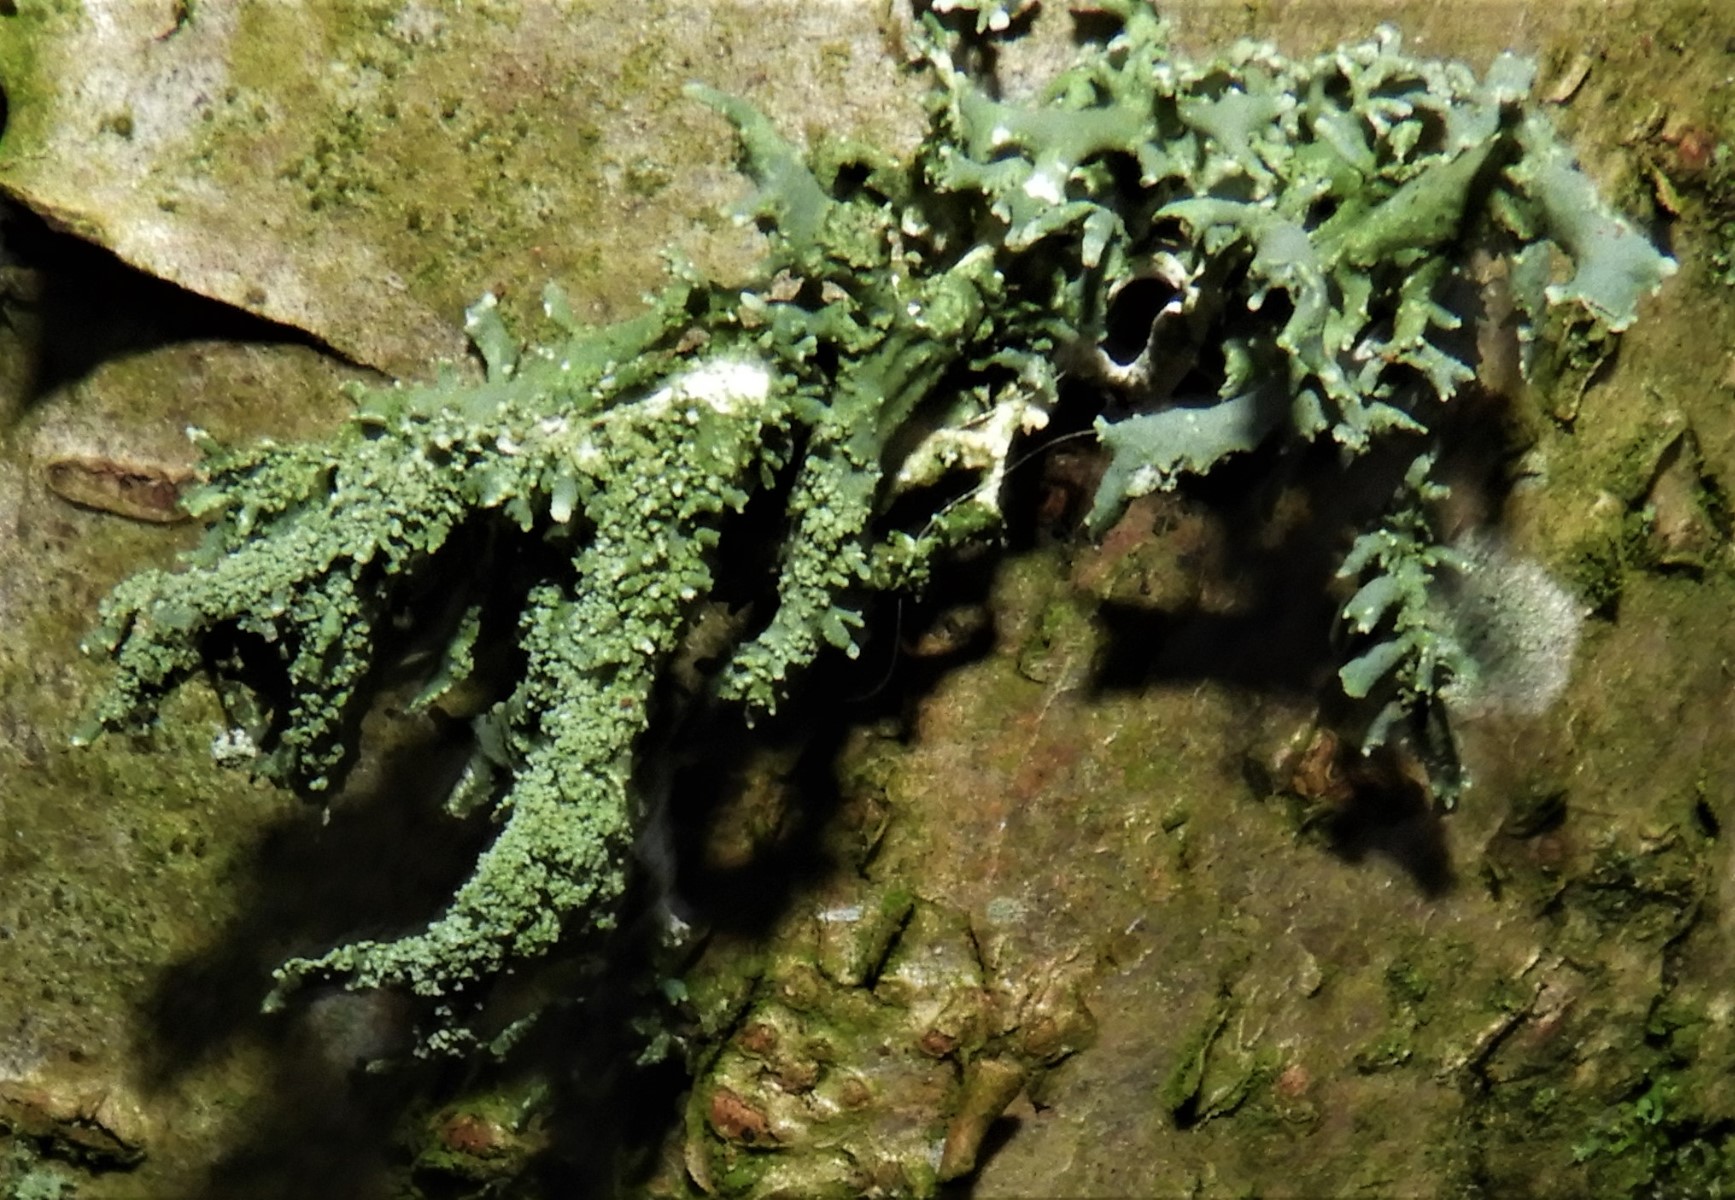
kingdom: Fungi
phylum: Ascomycota
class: Lecanoromycetes
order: Lecanorales
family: Parmeliaceae
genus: Evernia
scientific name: Evernia prunastri
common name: almindelig slåenlav
